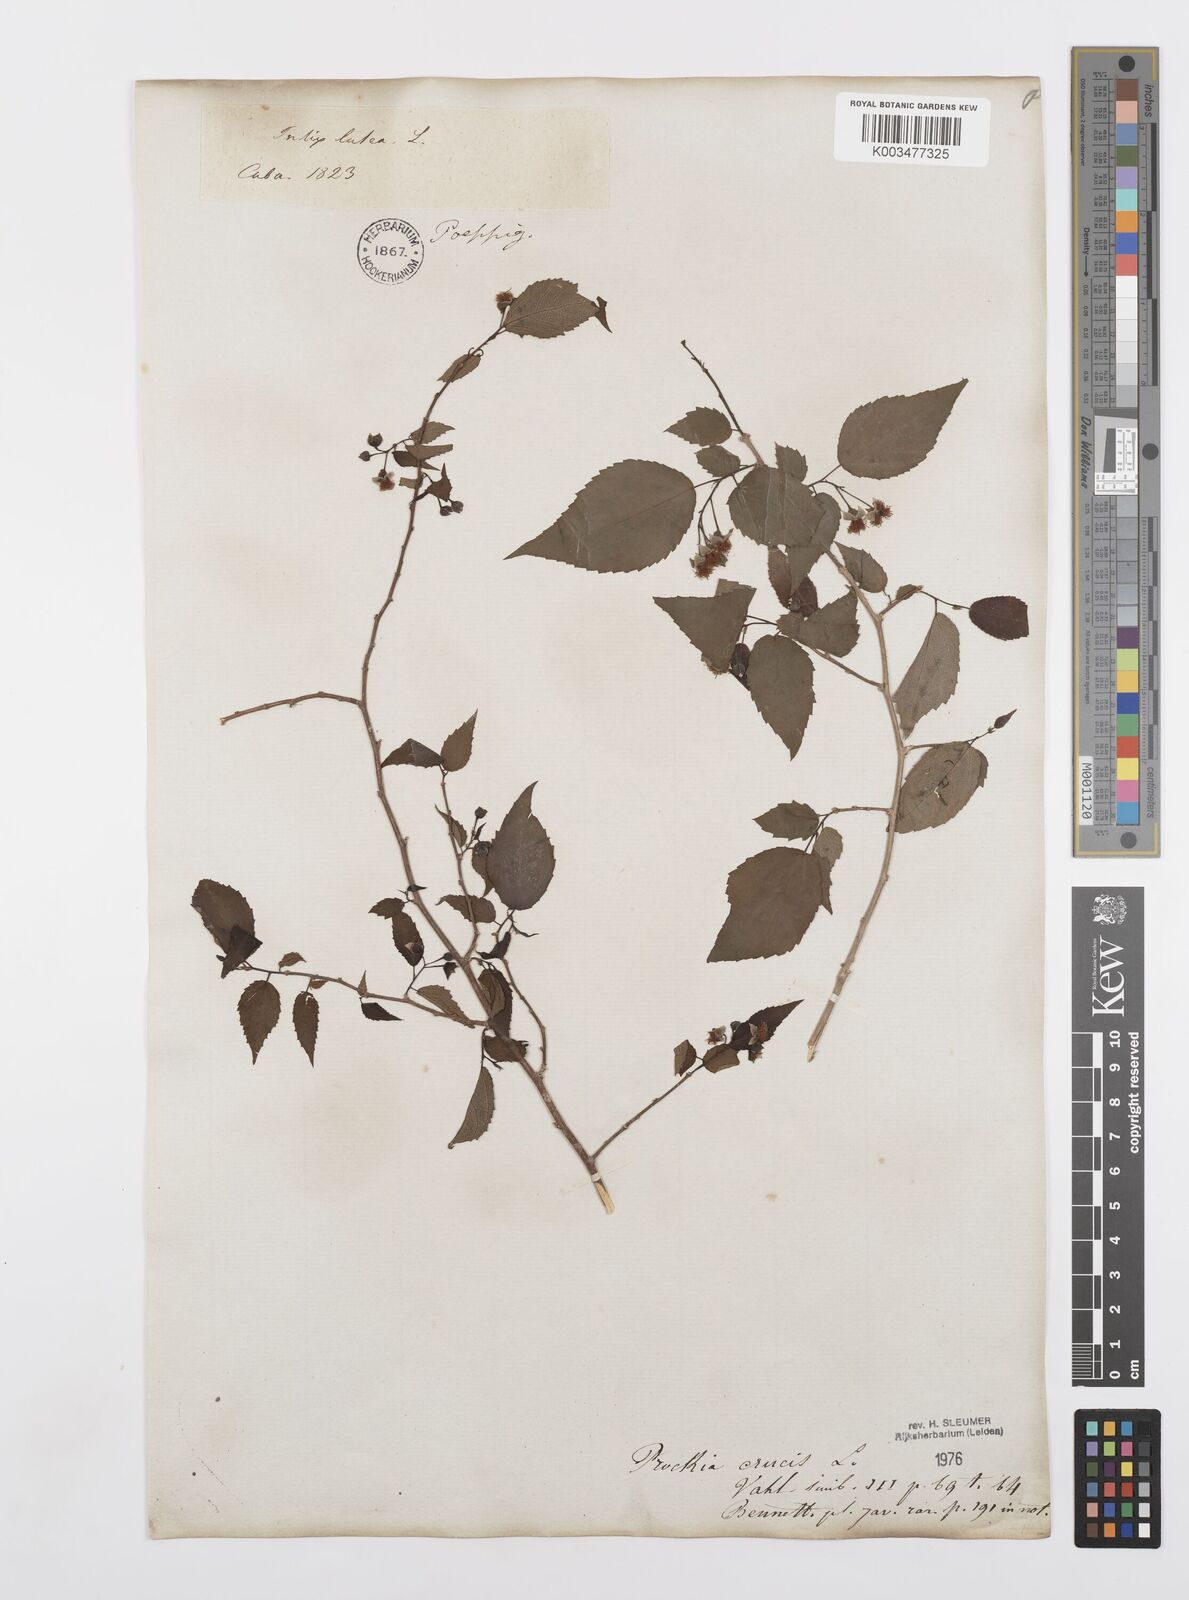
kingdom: Plantae
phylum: Tracheophyta
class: Magnoliopsida
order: Malpighiales
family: Salicaceae
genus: Prockia
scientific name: Prockia crucis
